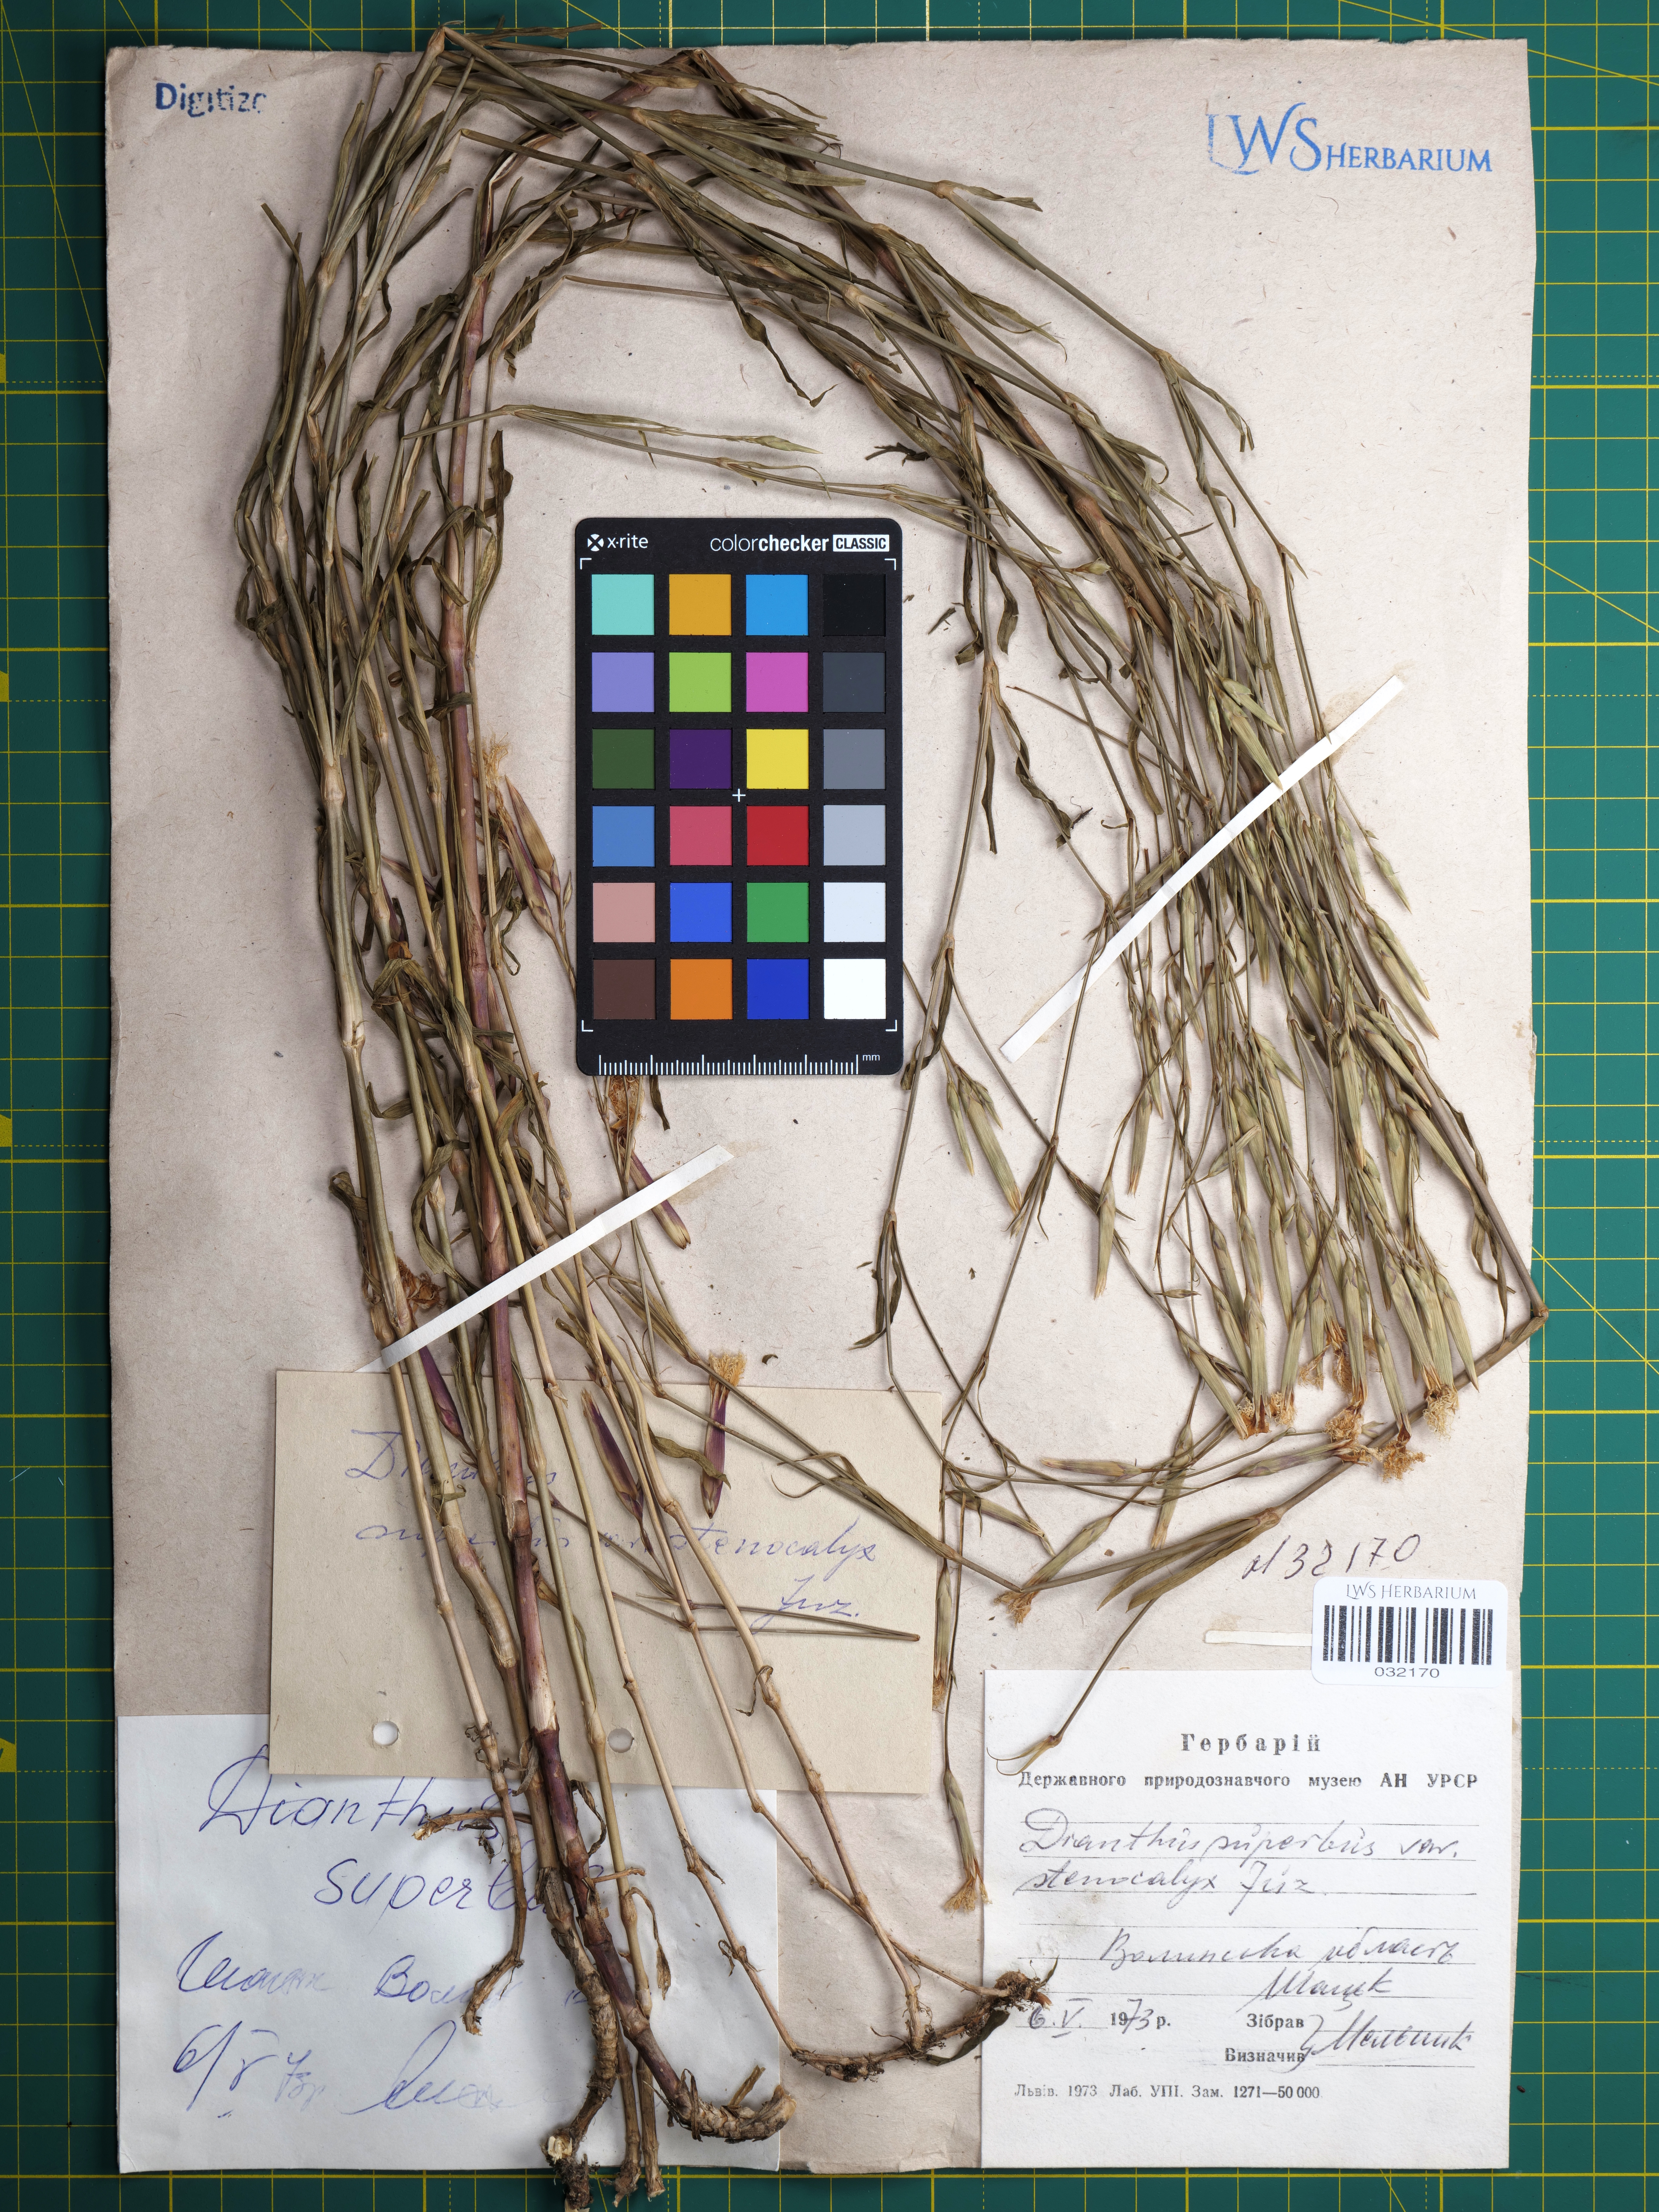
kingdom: Plantae
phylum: Tracheophyta
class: Magnoliopsida
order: Caryophyllales
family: Caryophyllaceae
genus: Dianthus
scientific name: Dianthus superbus
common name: Fringed pink
